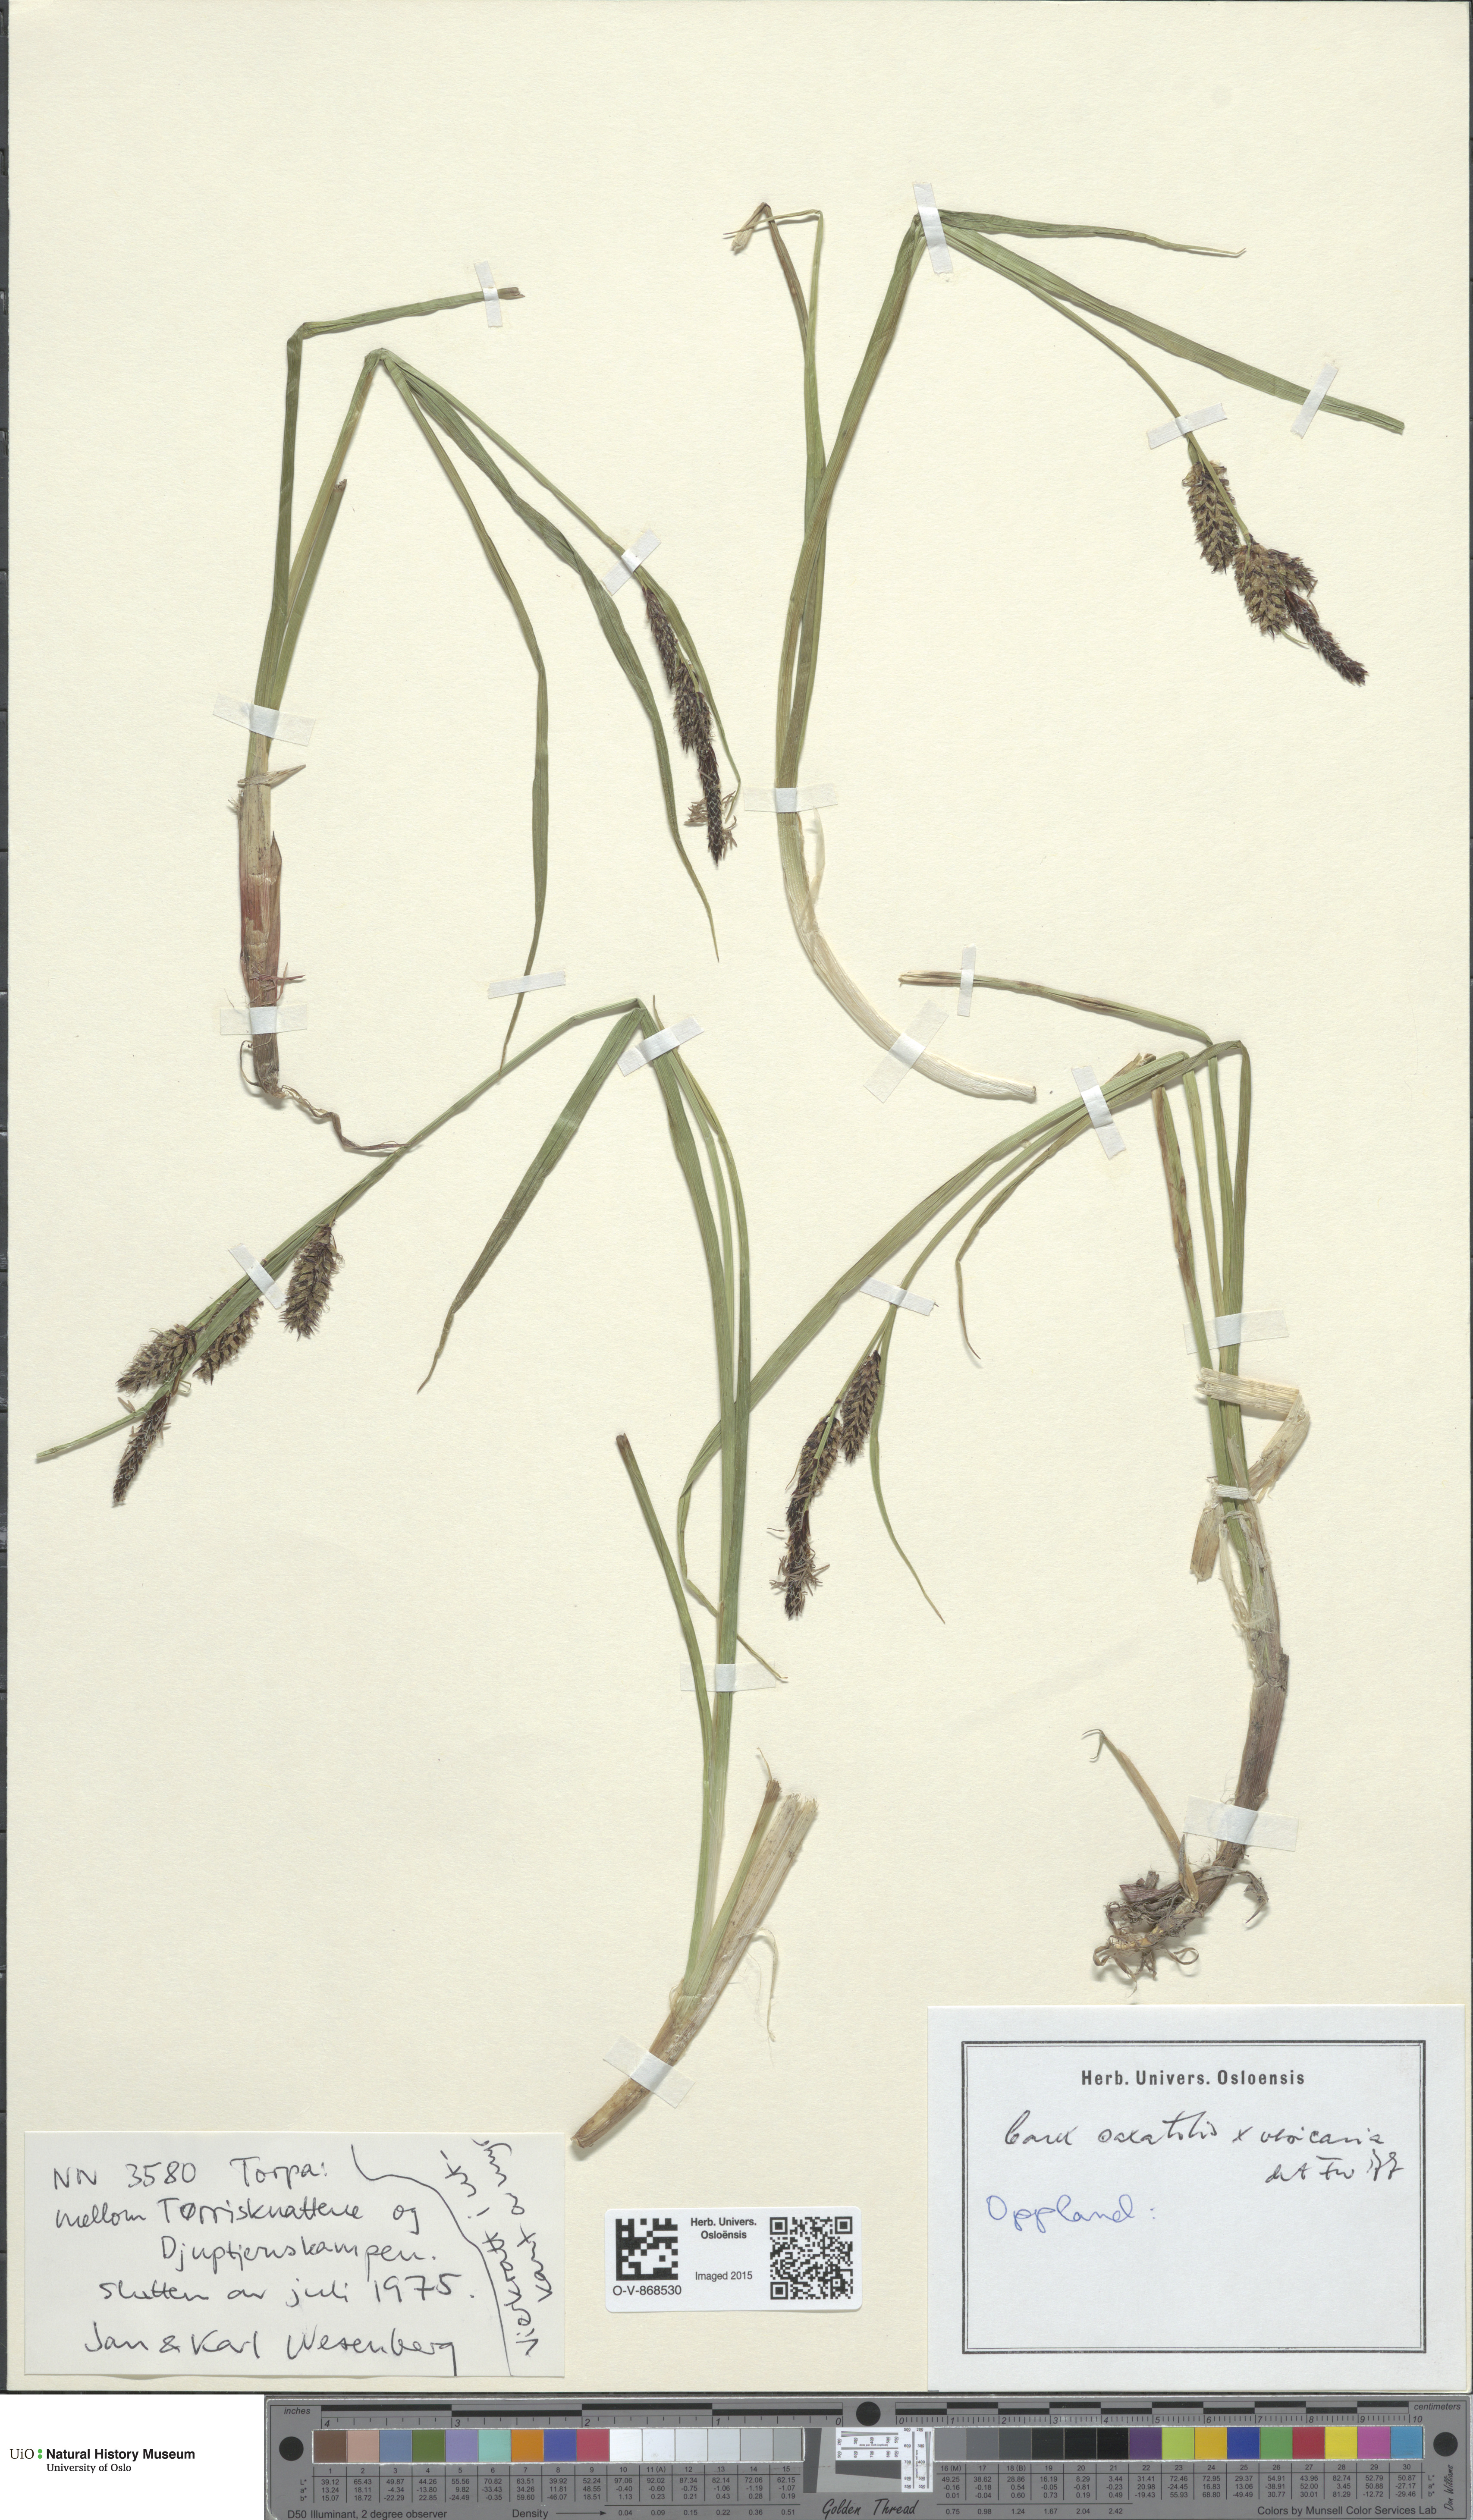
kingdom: Plantae
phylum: Tracheophyta
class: Liliopsida
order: Poales
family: Cyperaceae
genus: Carex
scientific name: Carex
